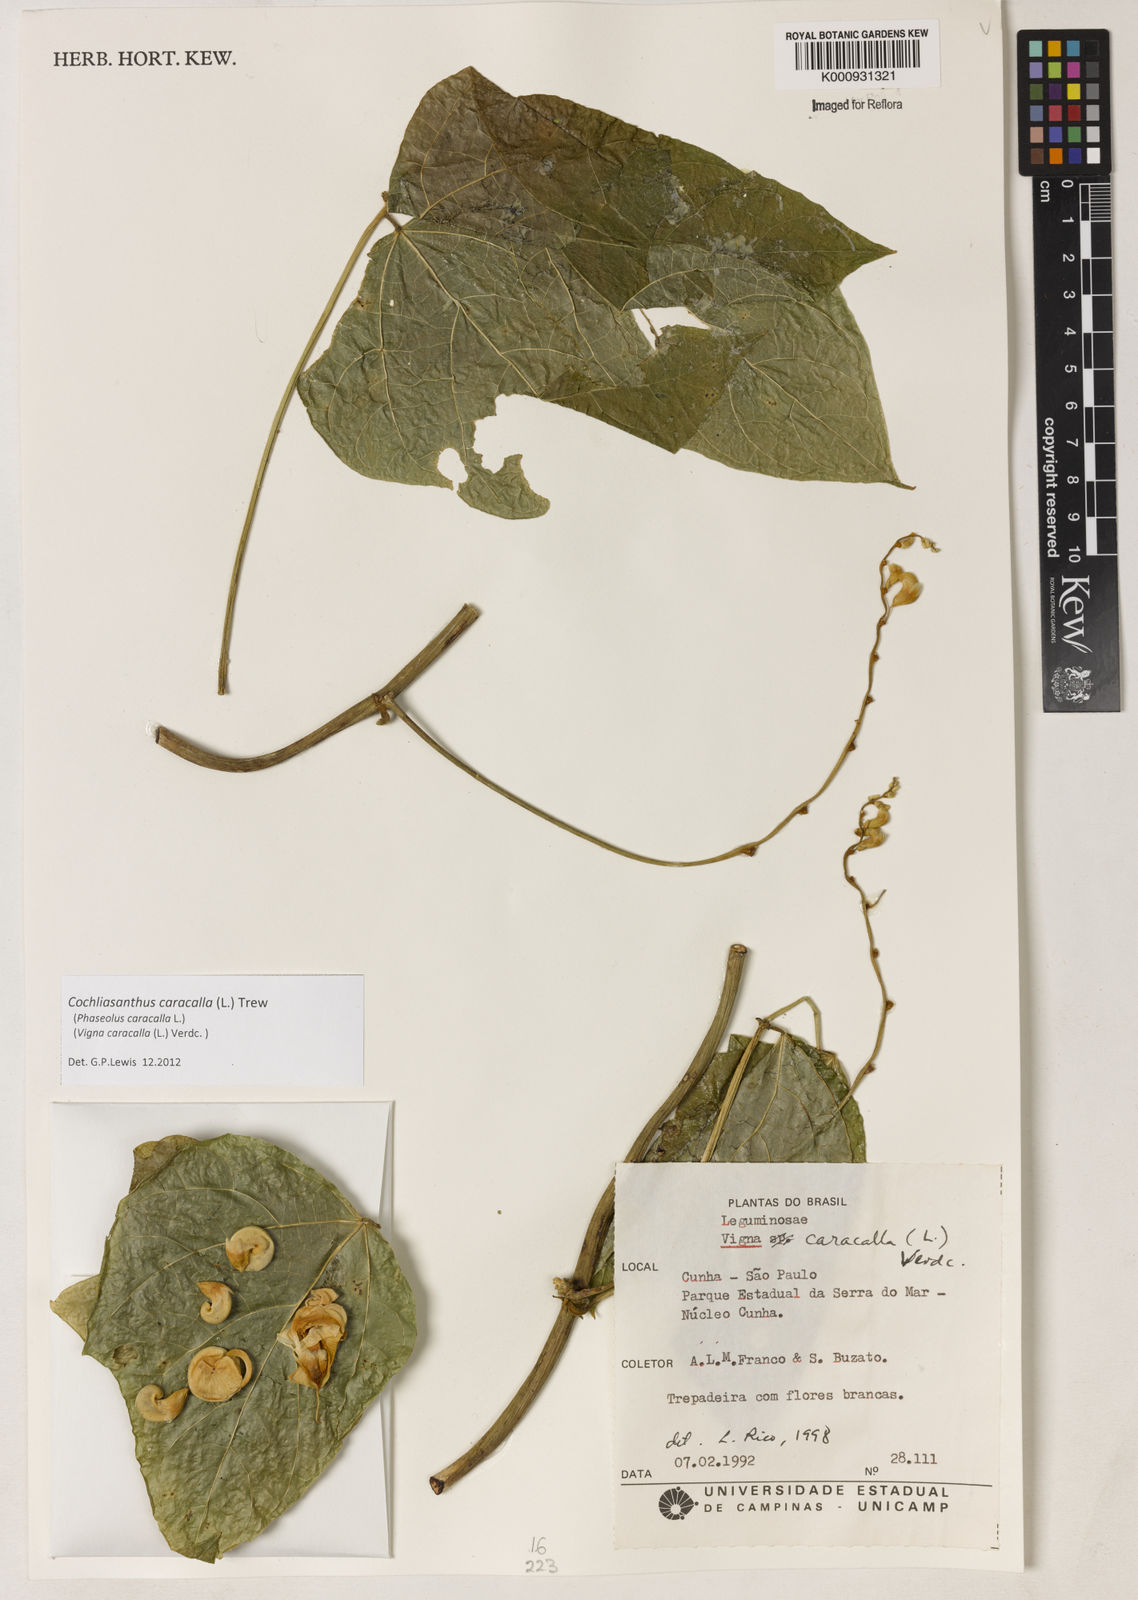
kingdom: Plantae
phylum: Tracheophyta
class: Magnoliopsida
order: Fabales
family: Fabaceae
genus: Cochliasanthus
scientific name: Cochliasanthus caracalla
